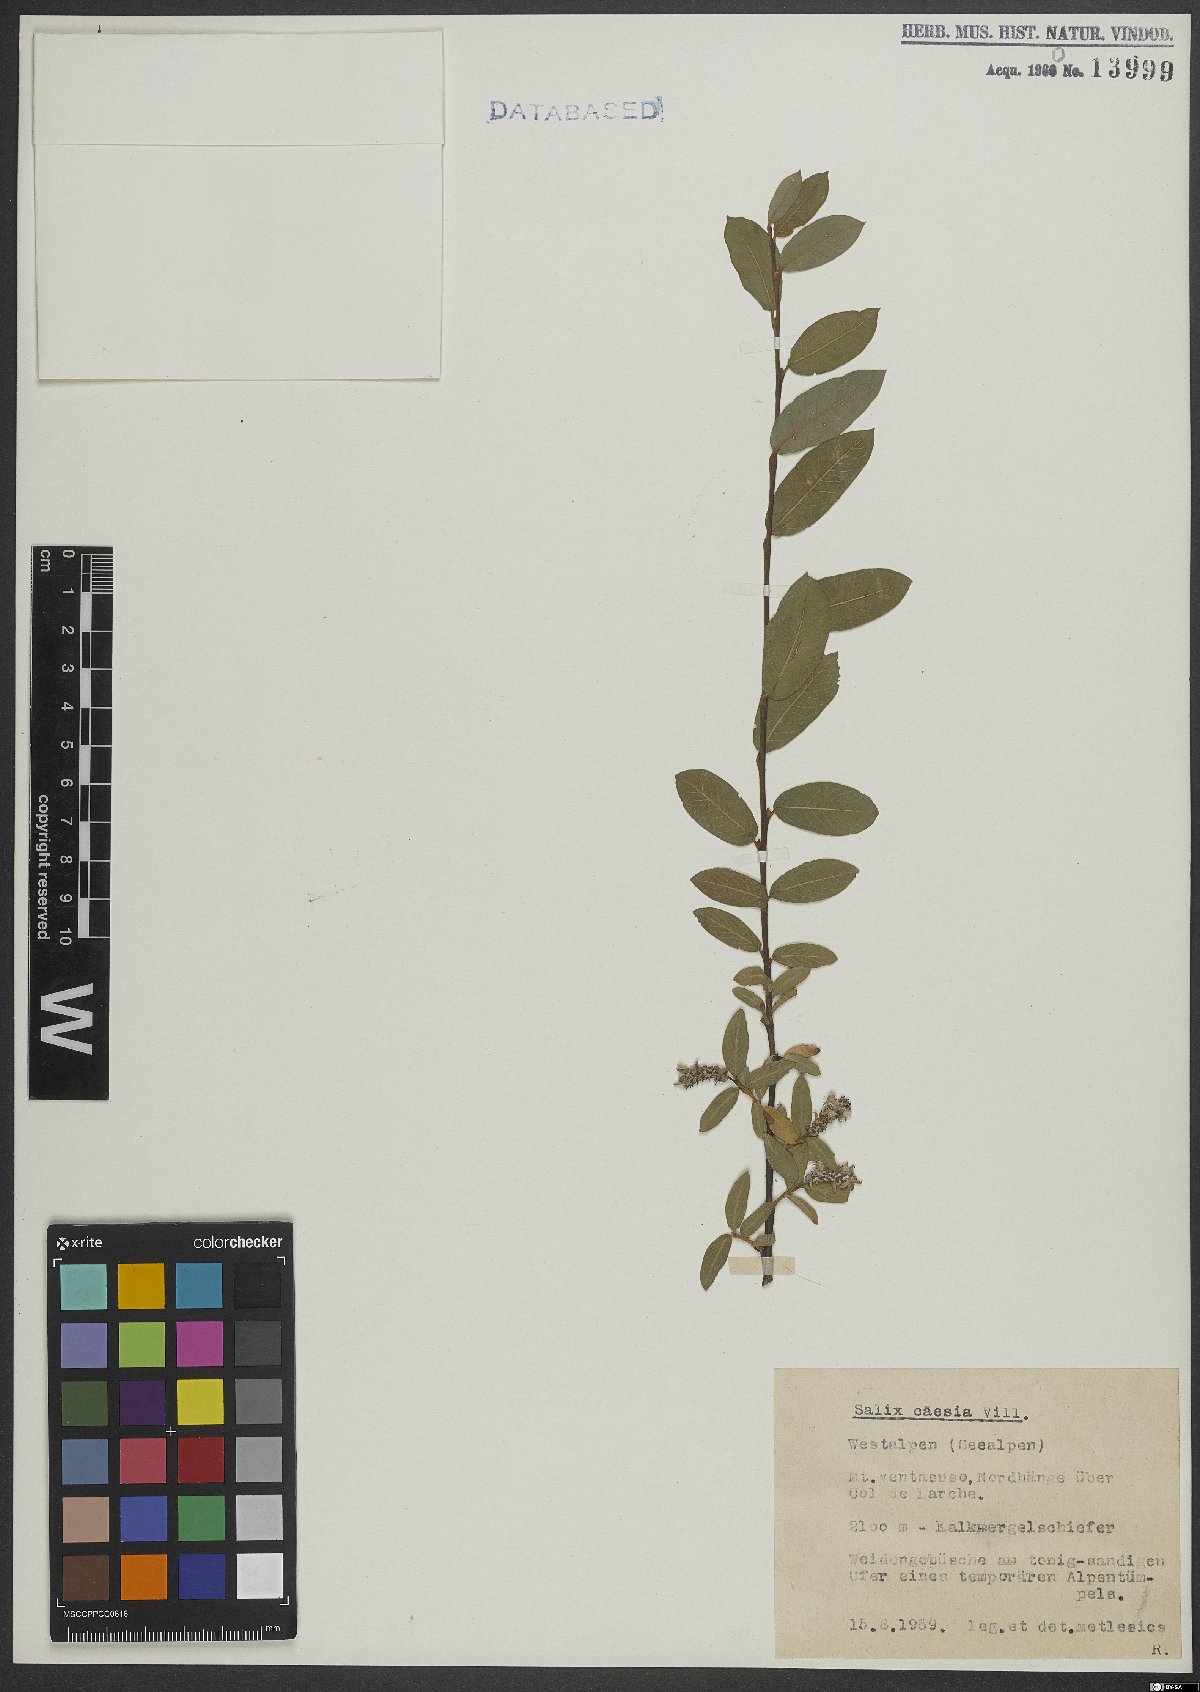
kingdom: Plantae
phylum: Tracheophyta
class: Magnoliopsida
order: Malpighiales
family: Salicaceae
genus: Salix
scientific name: Salix caesia
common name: Blue willow
